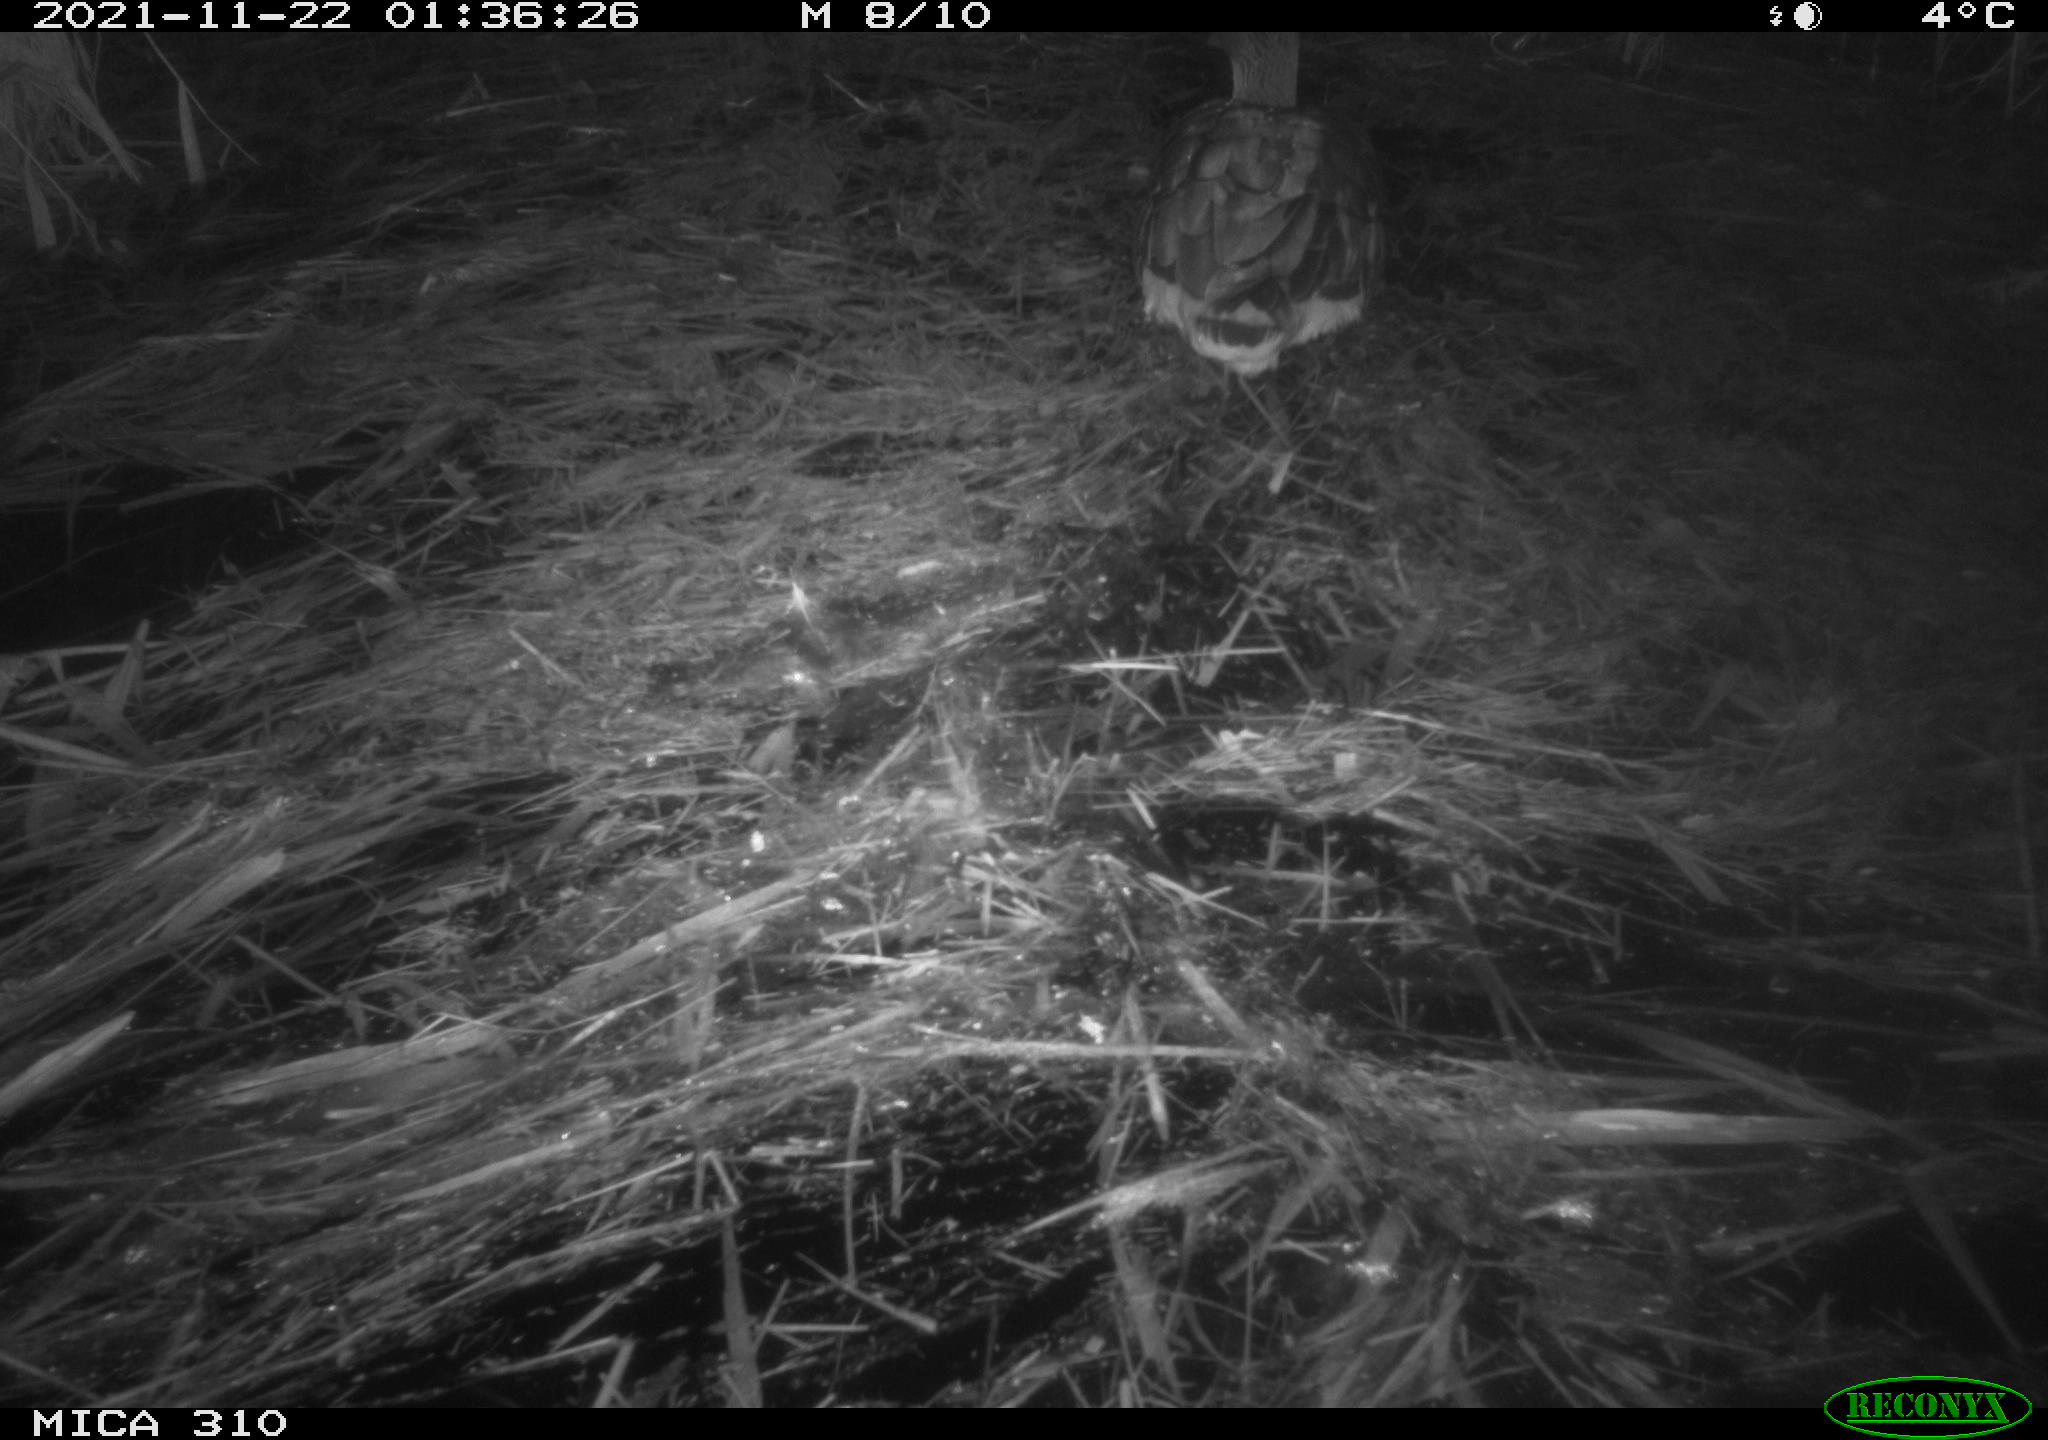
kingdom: Animalia
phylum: Chordata
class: Aves
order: Anseriformes
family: Anatidae
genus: Anas
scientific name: Anas platyrhynchos
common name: Mallard
